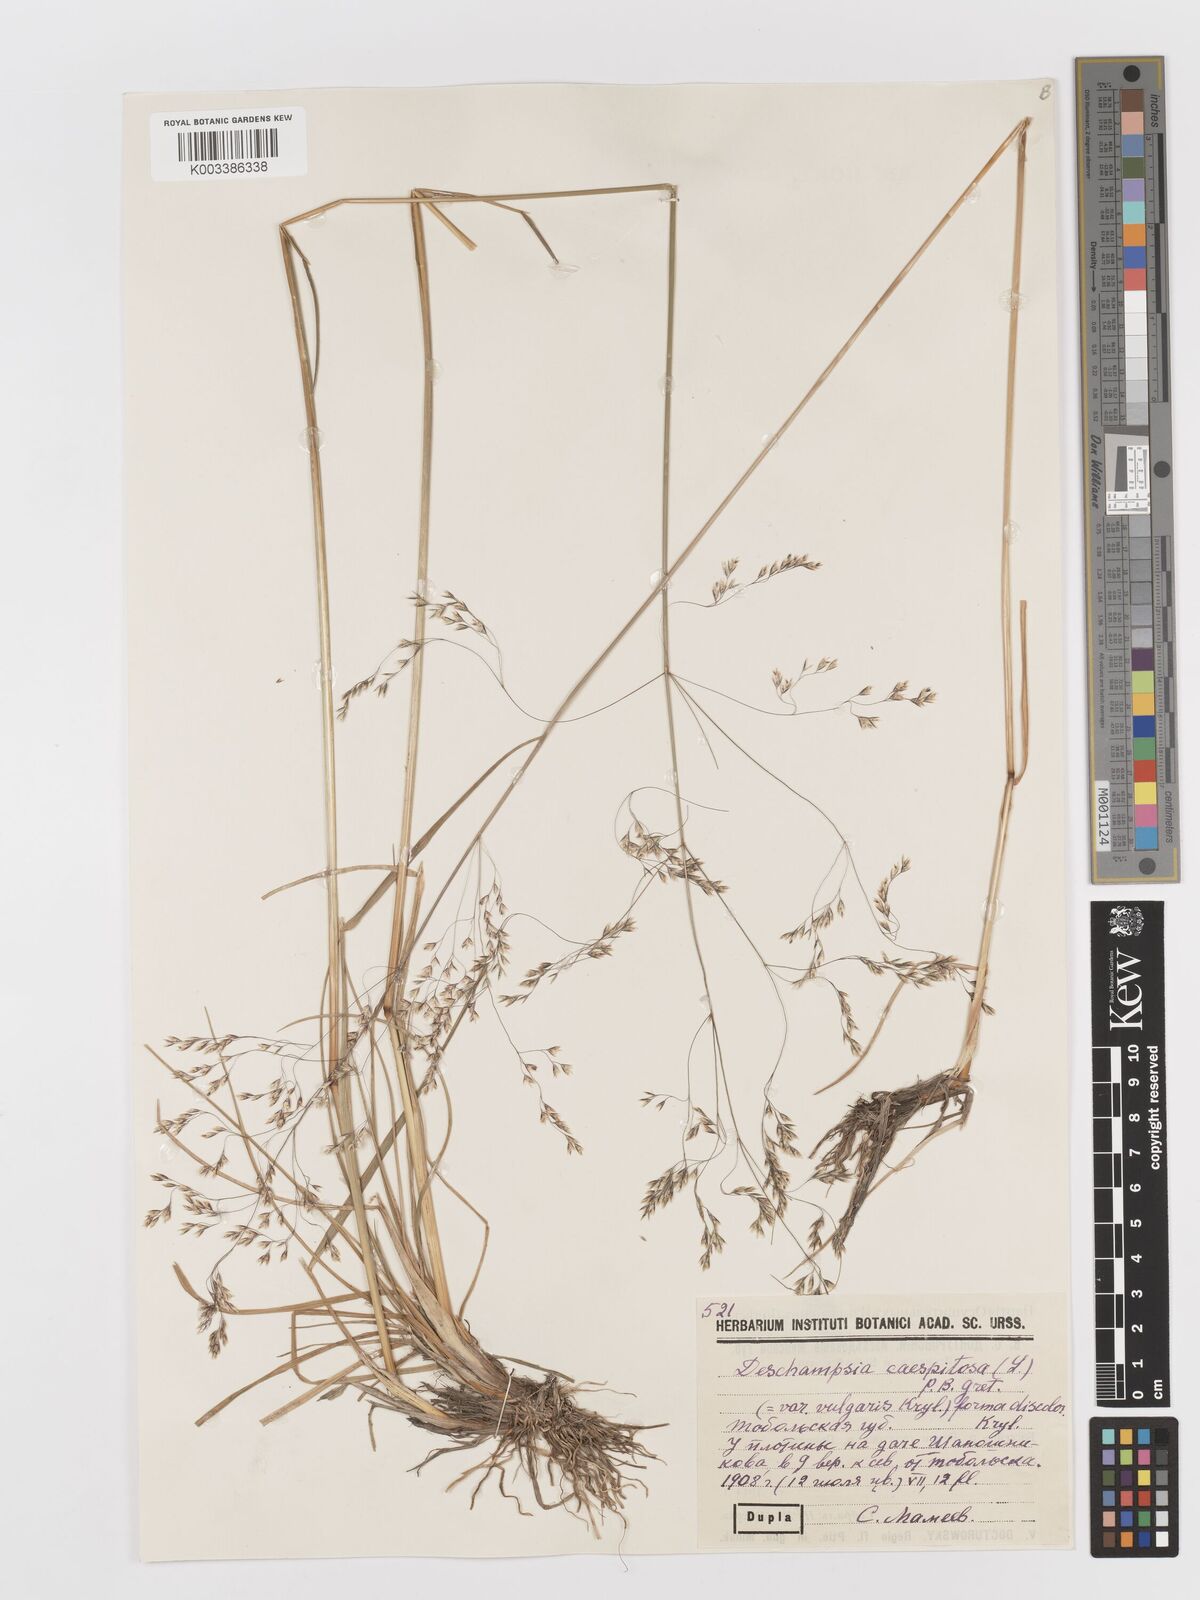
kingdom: Plantae
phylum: Tracheophyta
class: Liliopsida
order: Poales
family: Poaceae
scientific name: Poaceae
